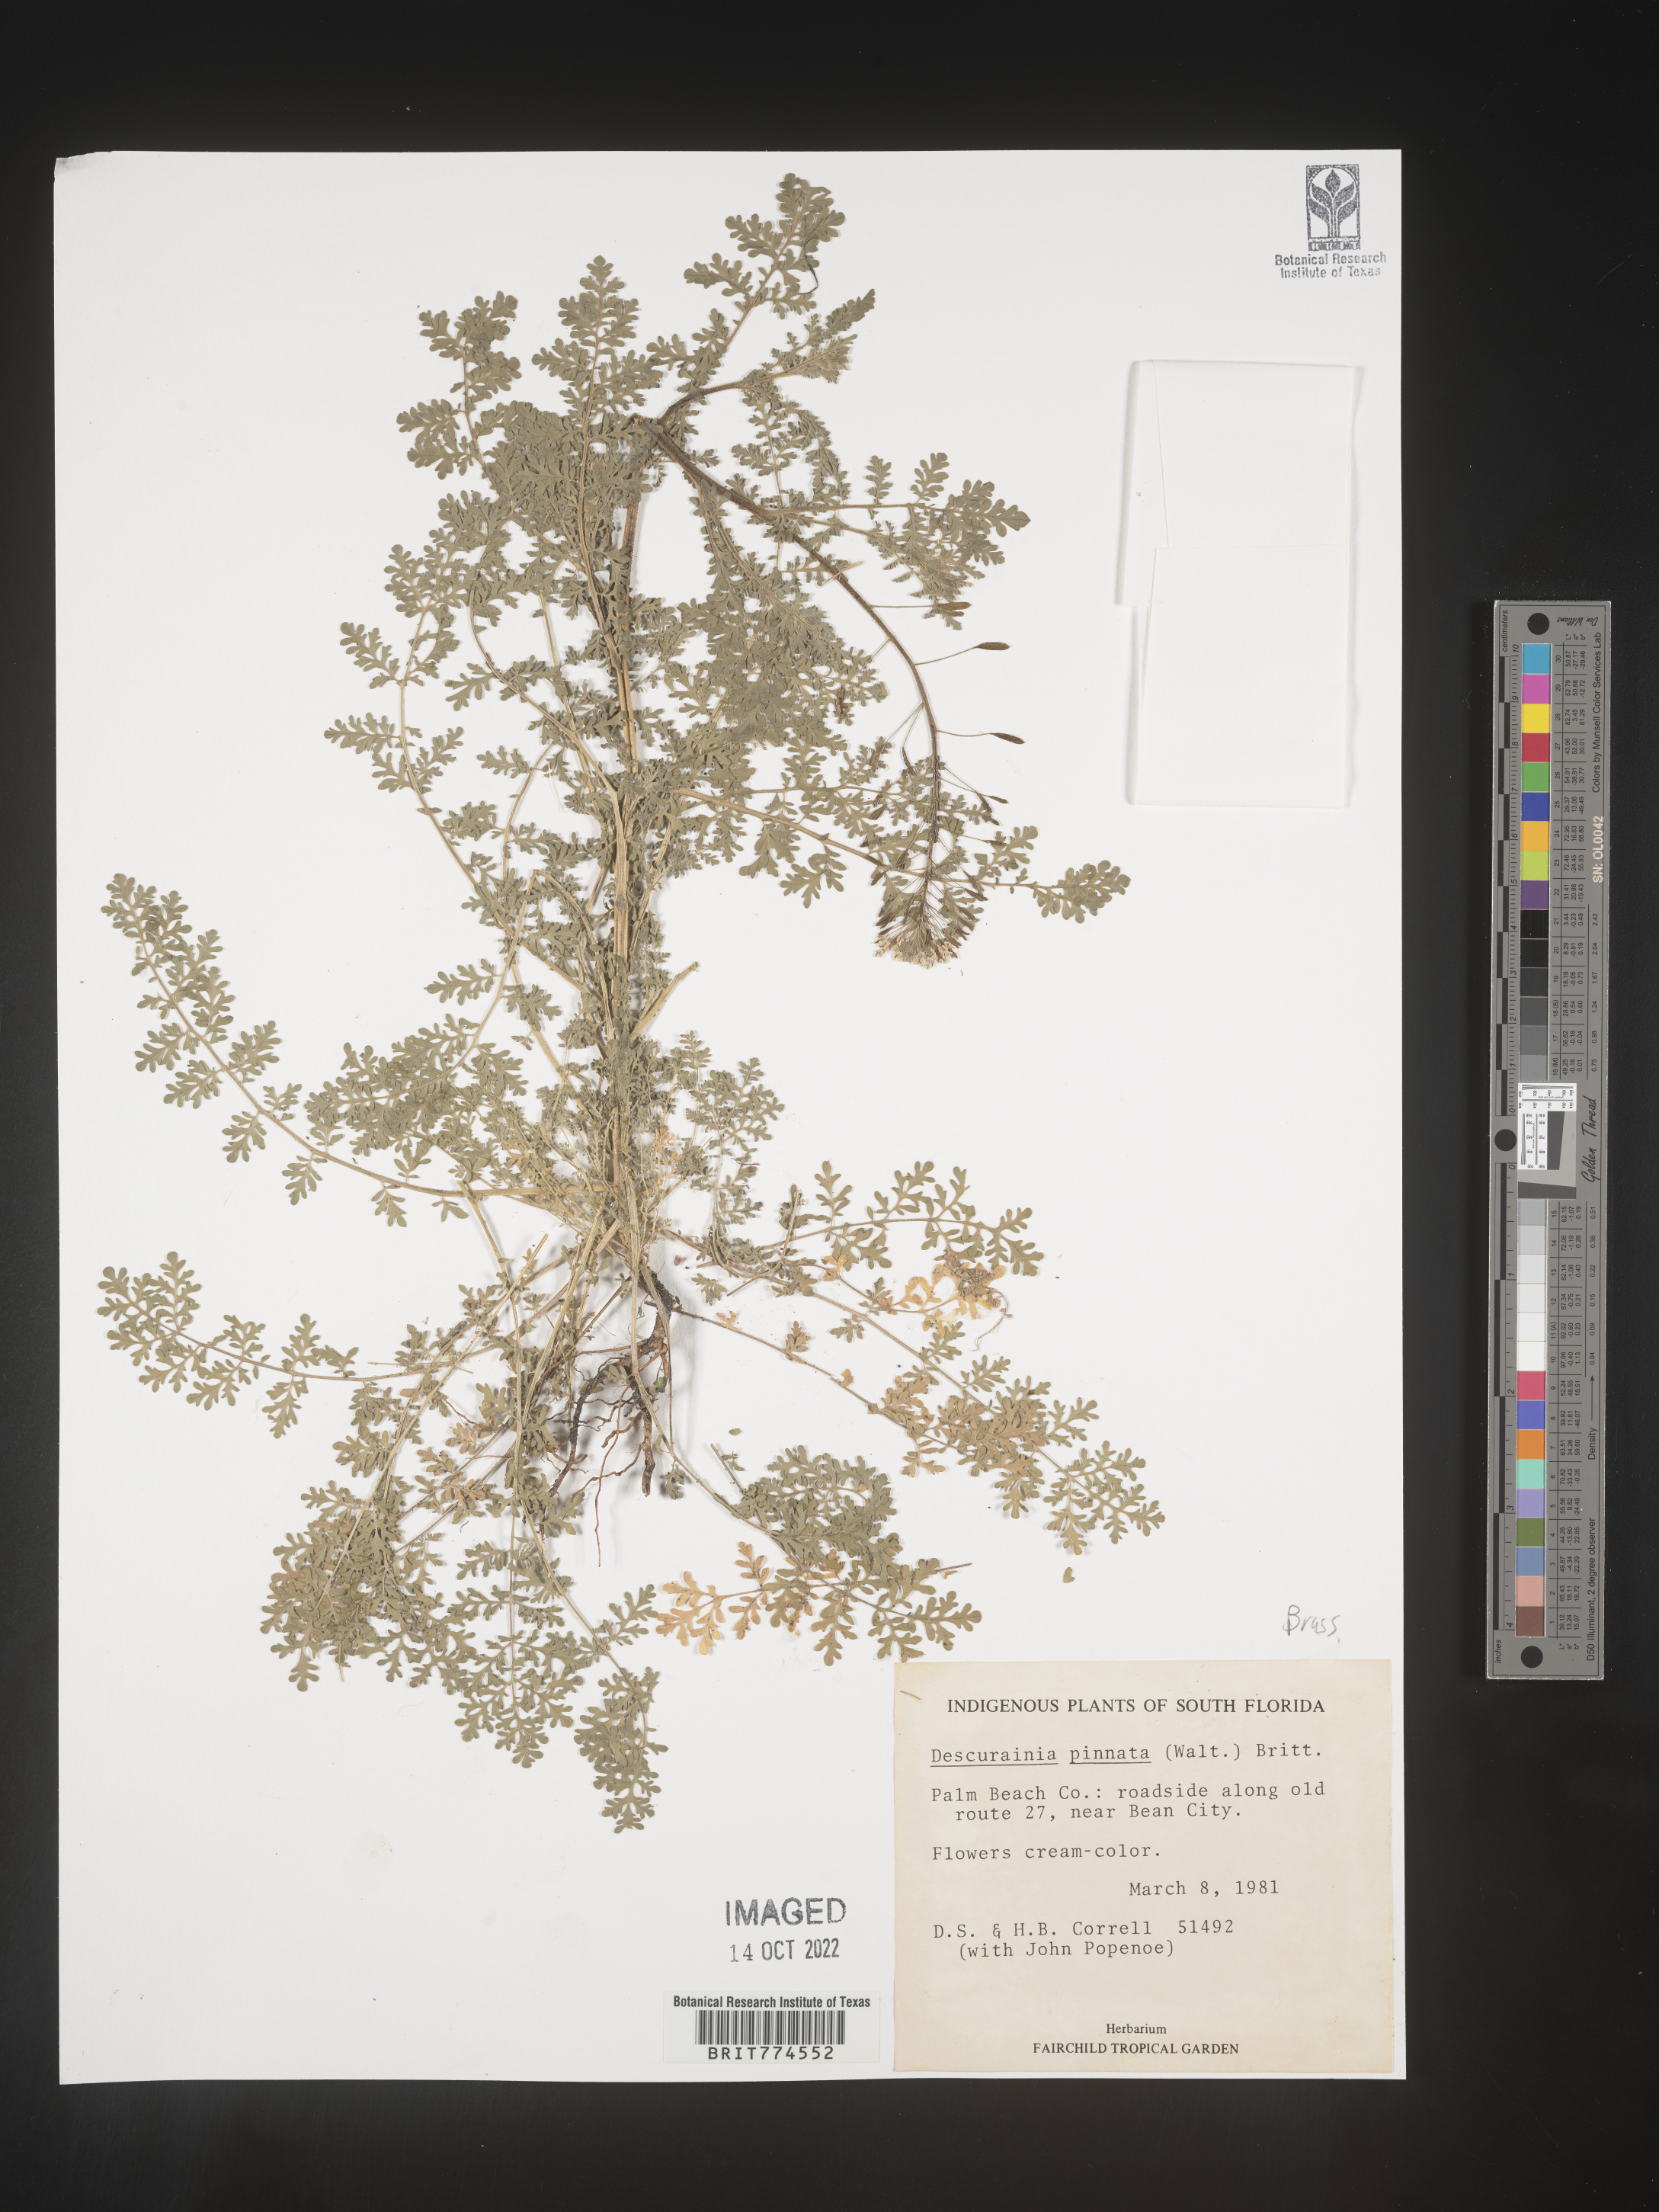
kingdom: Plantae
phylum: Tracheophyta
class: Magnoliopsida
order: Brassicales
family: Brassicaceae
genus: Descurainia
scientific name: Descurainia pinnata
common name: Western tansy mustard
